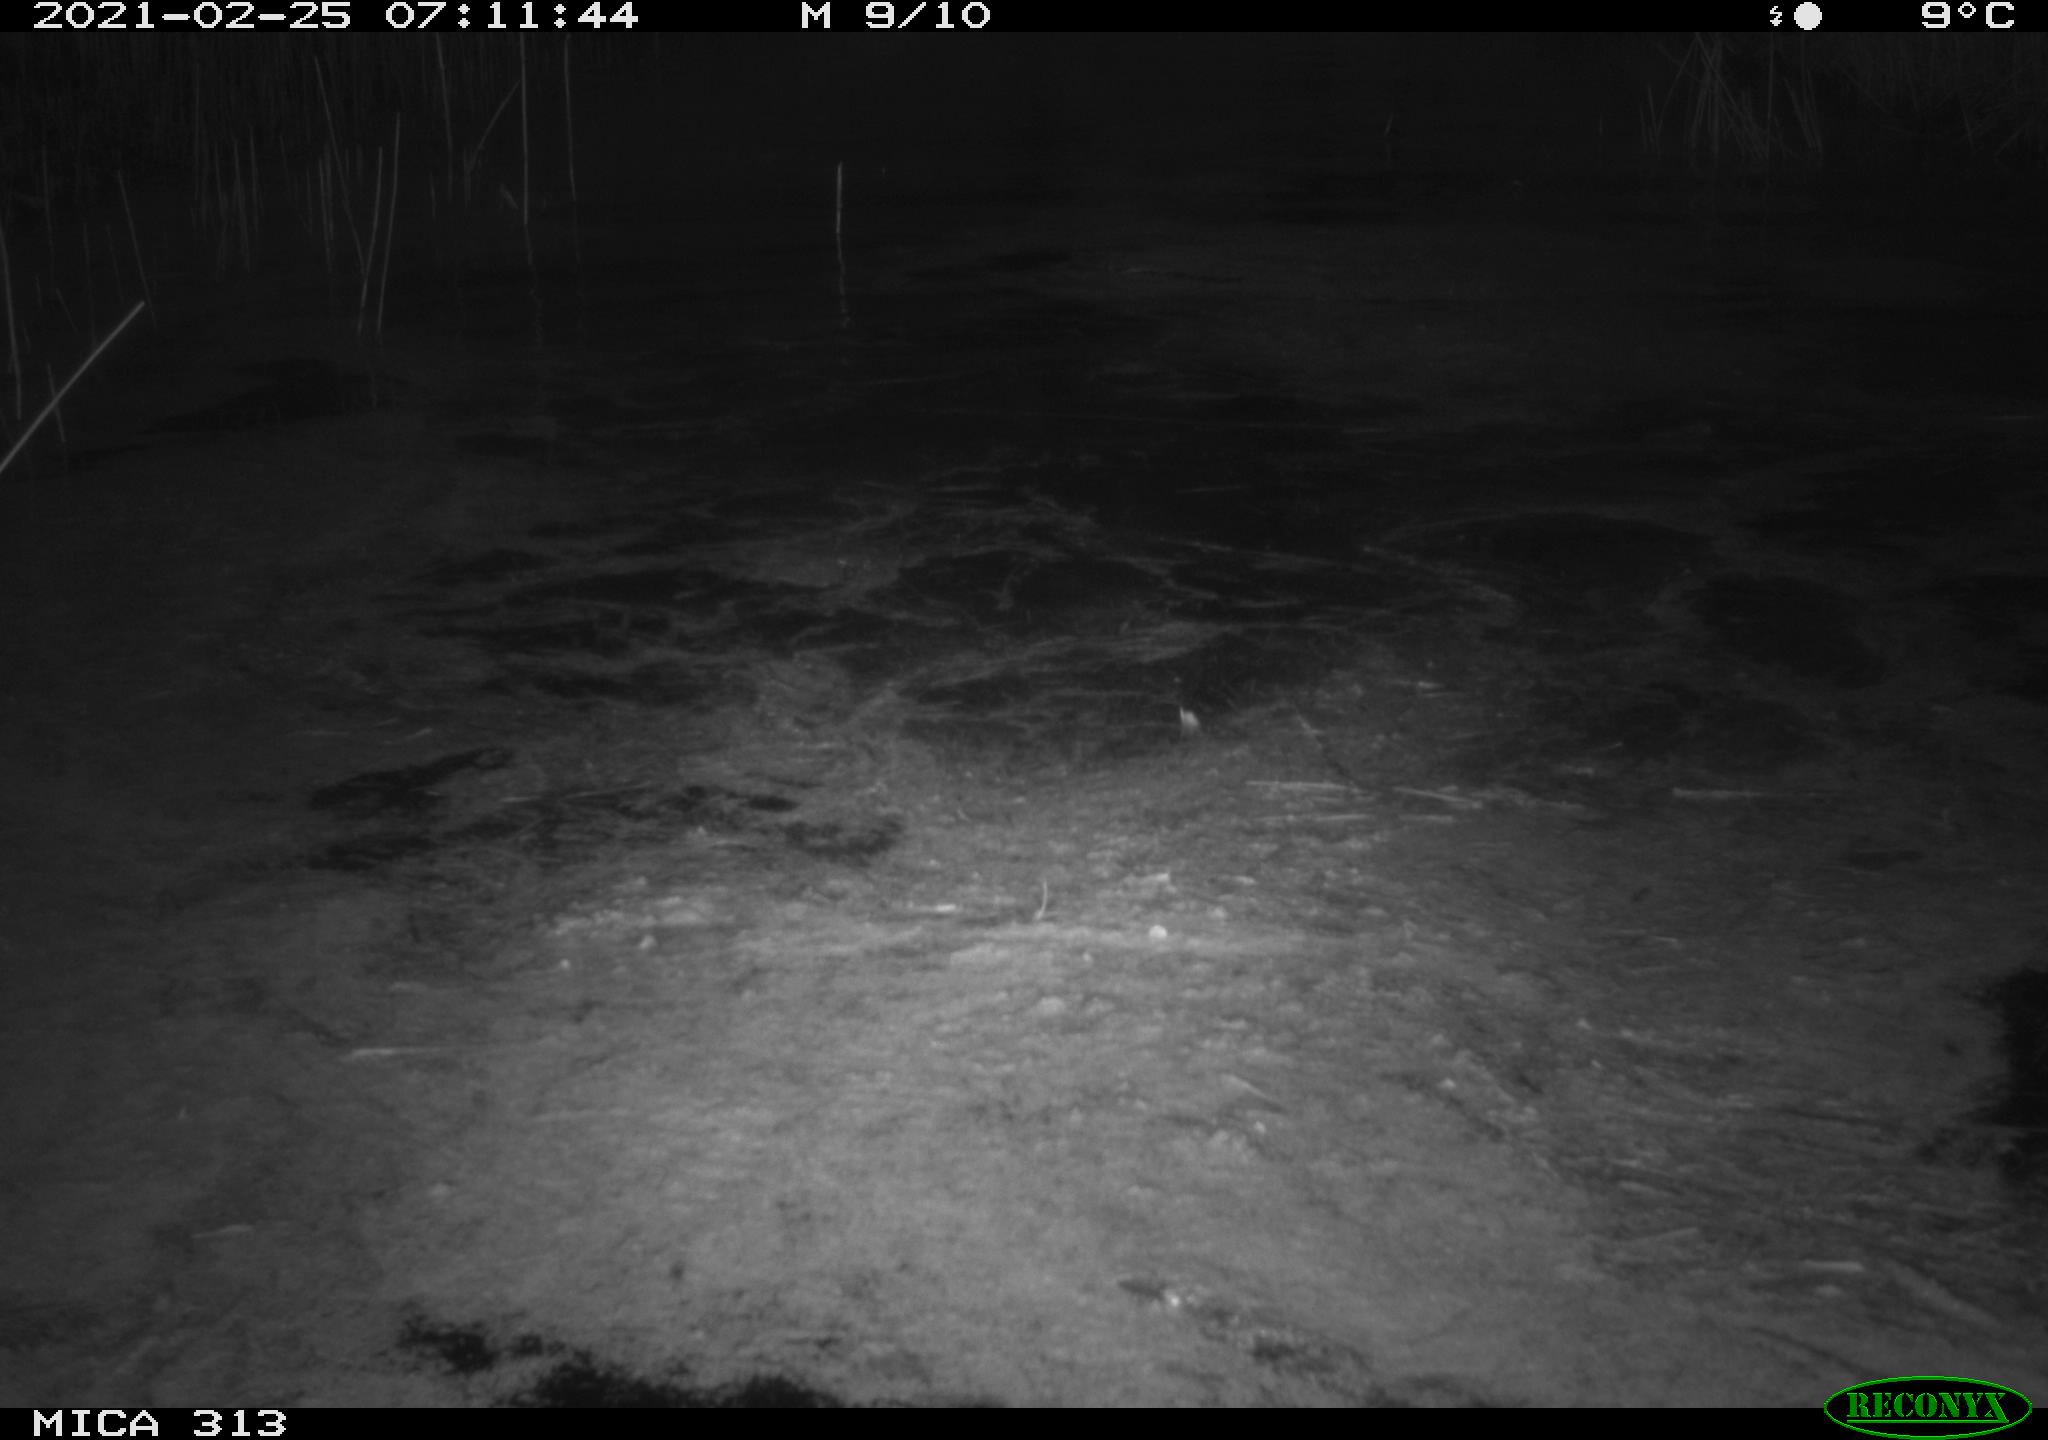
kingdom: Animalia
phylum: Chordata
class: Aves
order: Anseriformes
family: Anatidae
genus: Anas
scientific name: Anas
